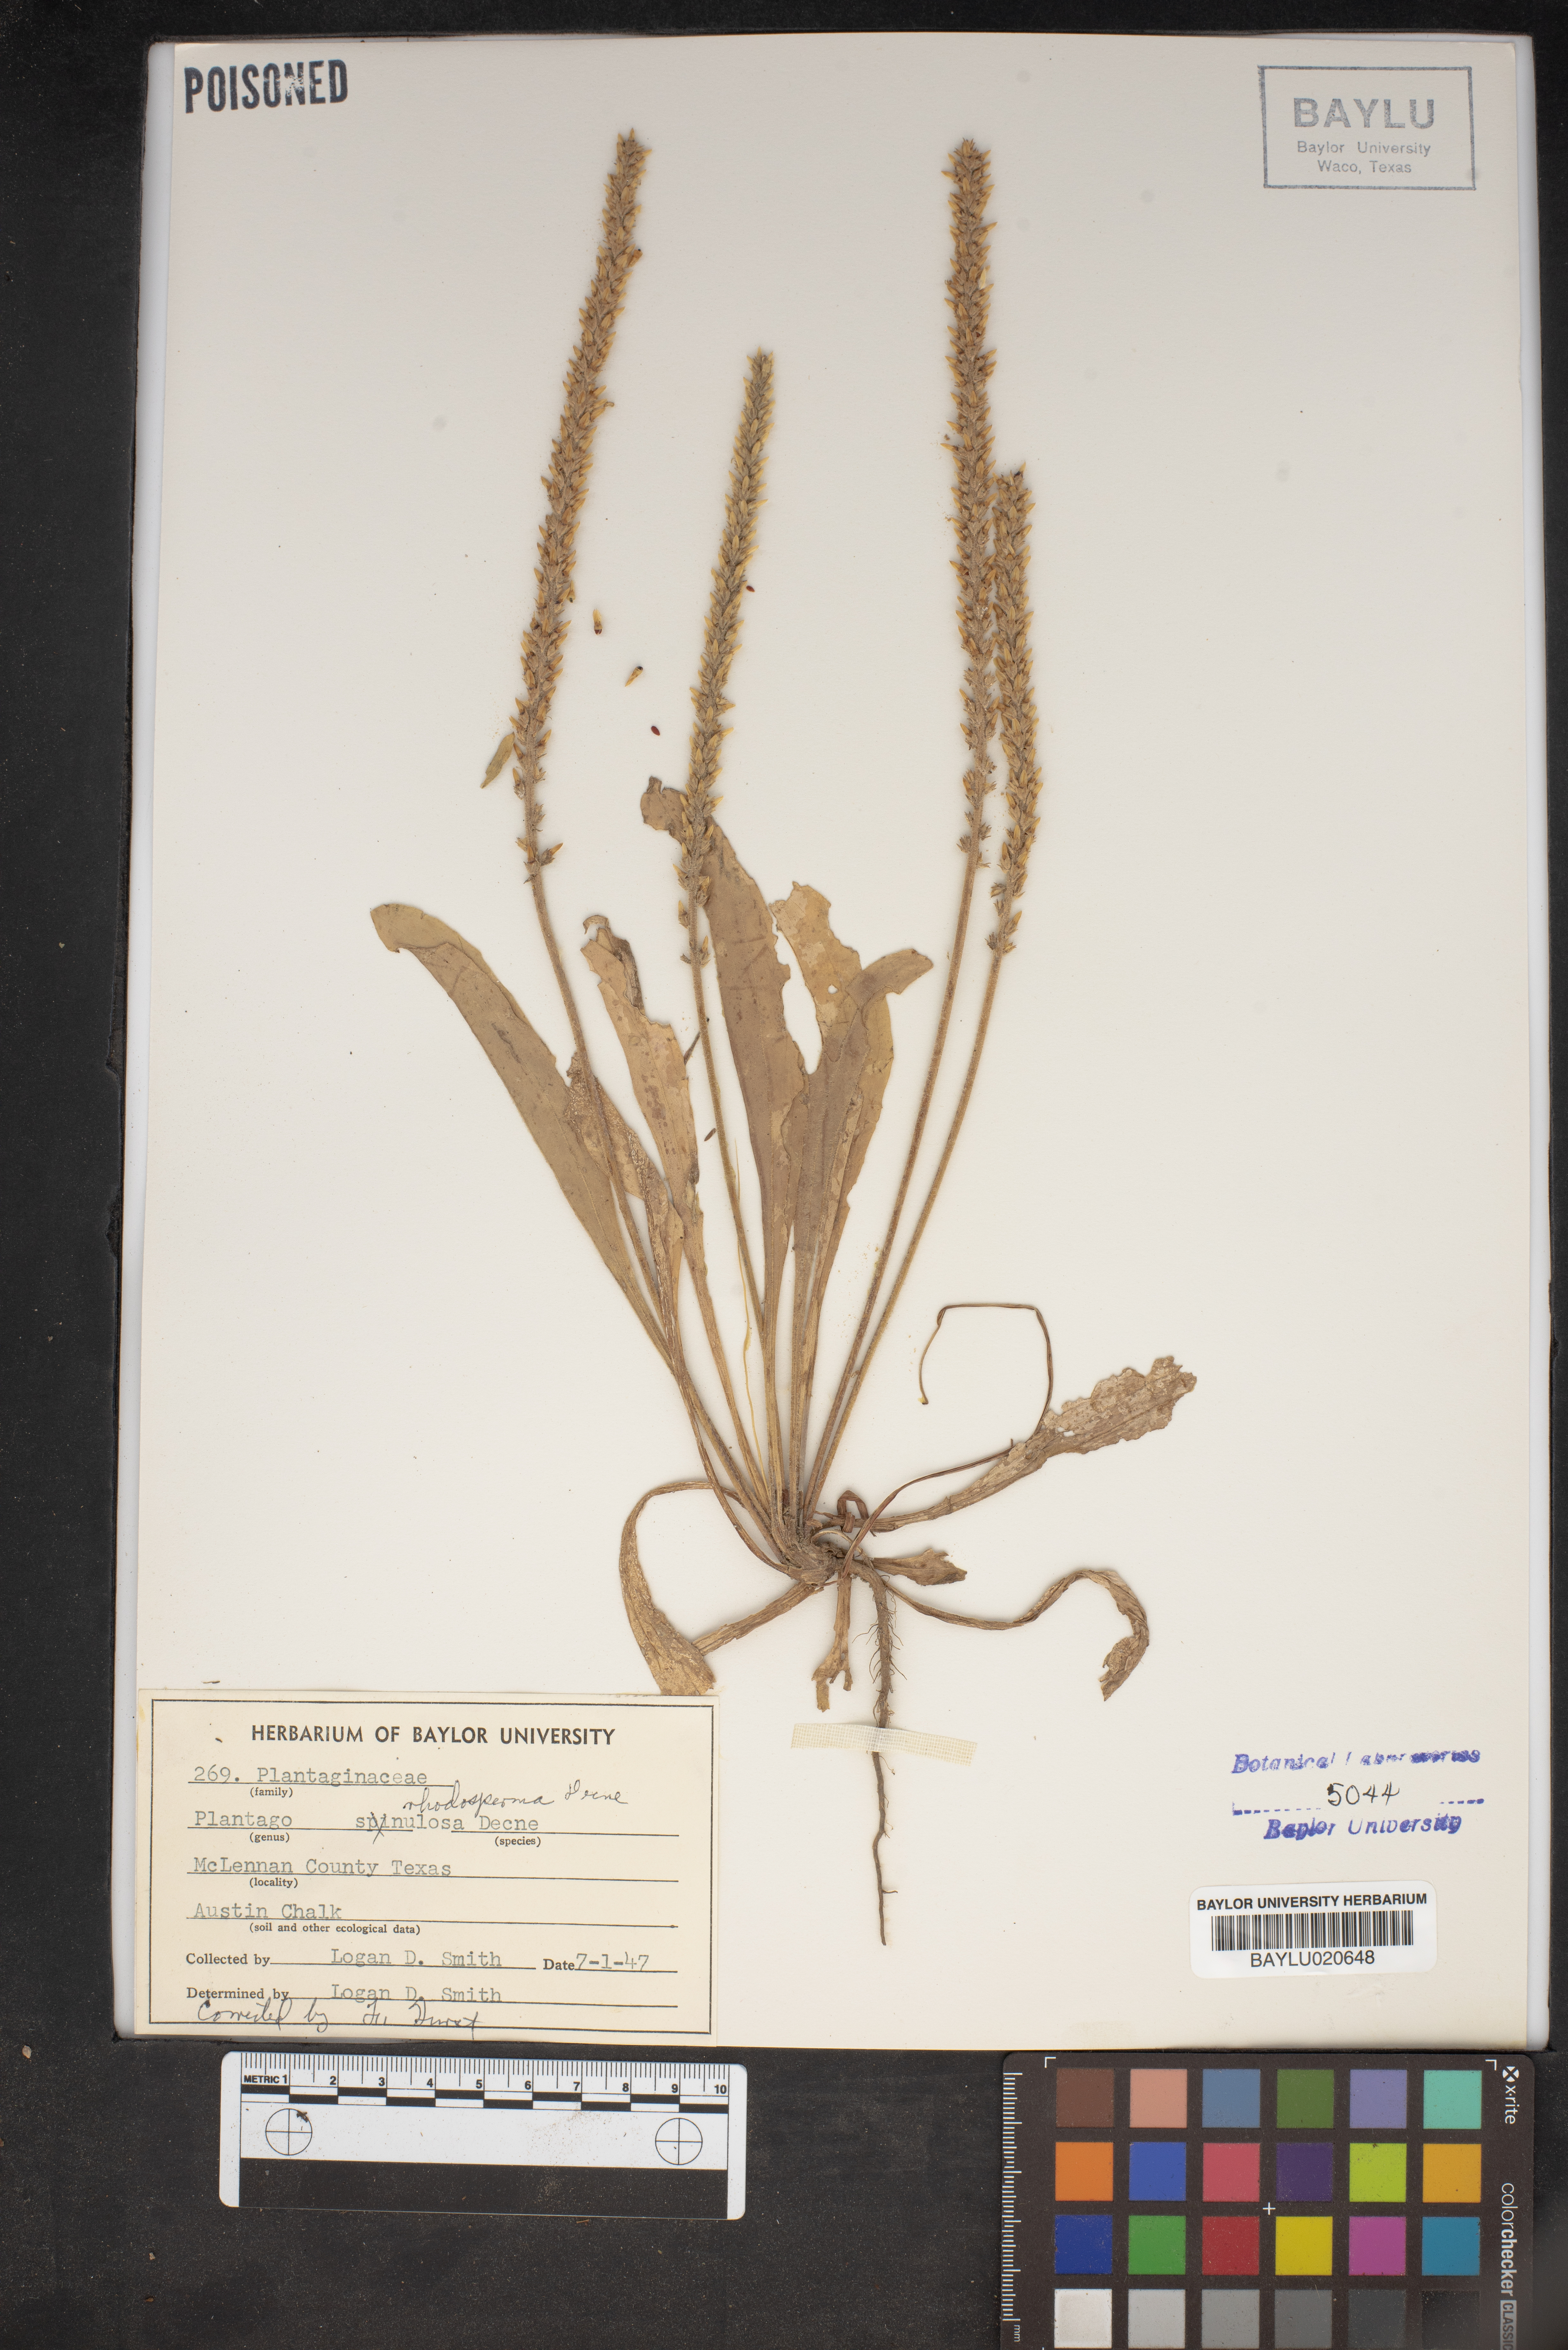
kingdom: Plantae
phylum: Tracheophyta
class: Magnoliopsida
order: Lamiales
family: Plantaginaceae
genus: Plantago
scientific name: Plantago rhodosperma
